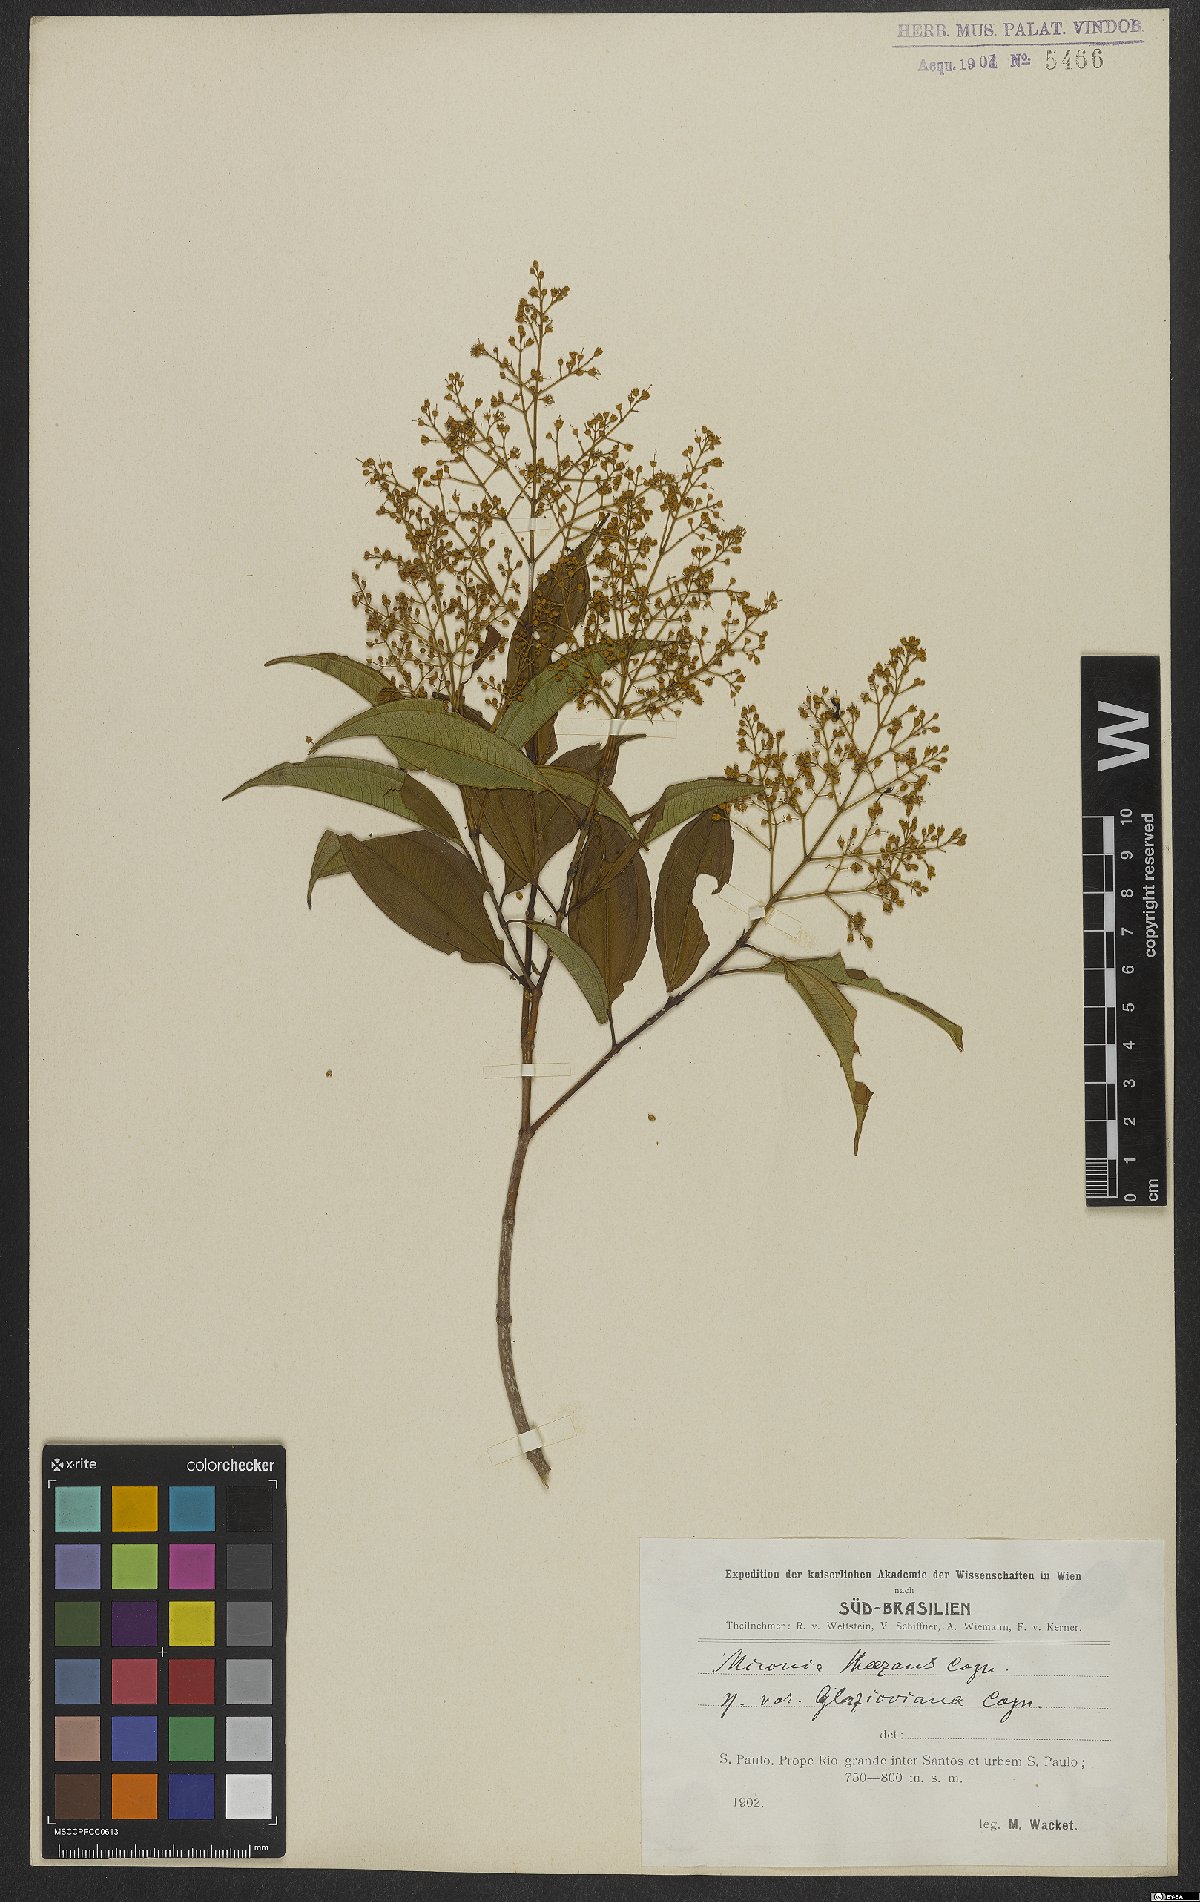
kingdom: Plantae
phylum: Tracheophyta
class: Magnoliopsida
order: Myrtales
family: Melastomataceae
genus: Miconia
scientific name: Miconia theizans
